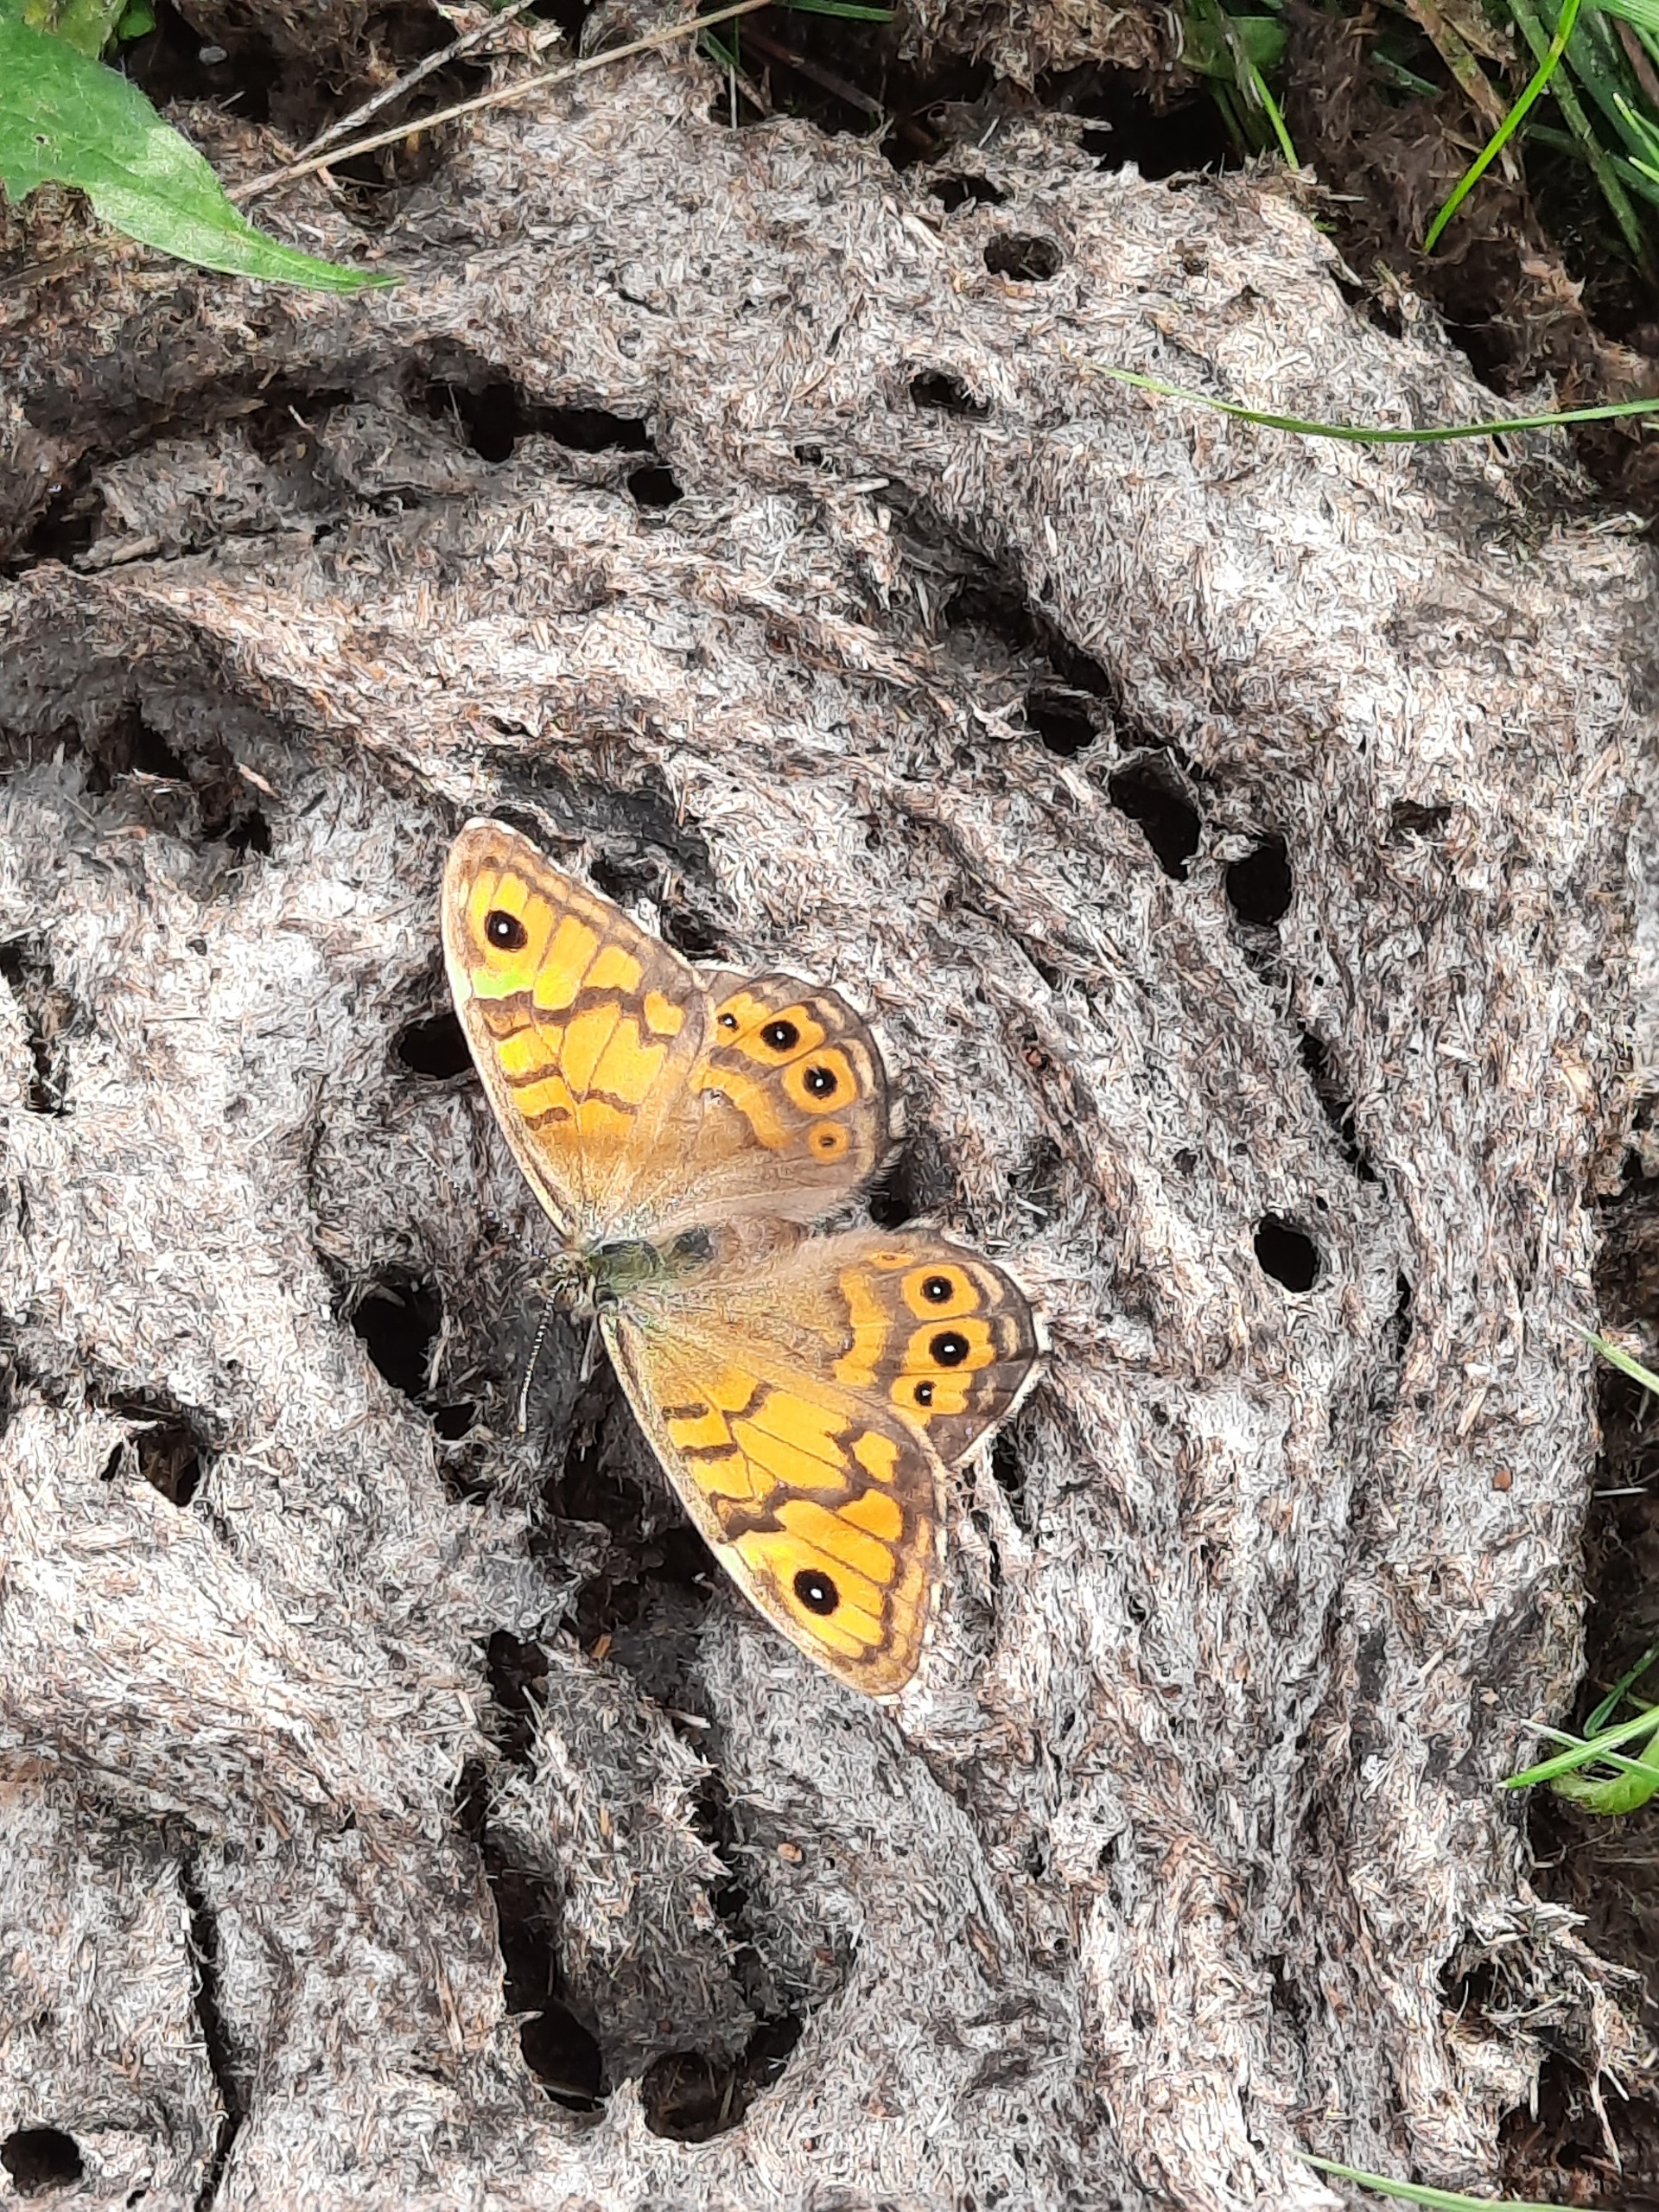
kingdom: Animalia
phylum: Arthropoda
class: Insecta
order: Lepidoptera
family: Nymphalidae
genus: Pararge
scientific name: Pararge Lasiommata megera
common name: Vejrandøje
